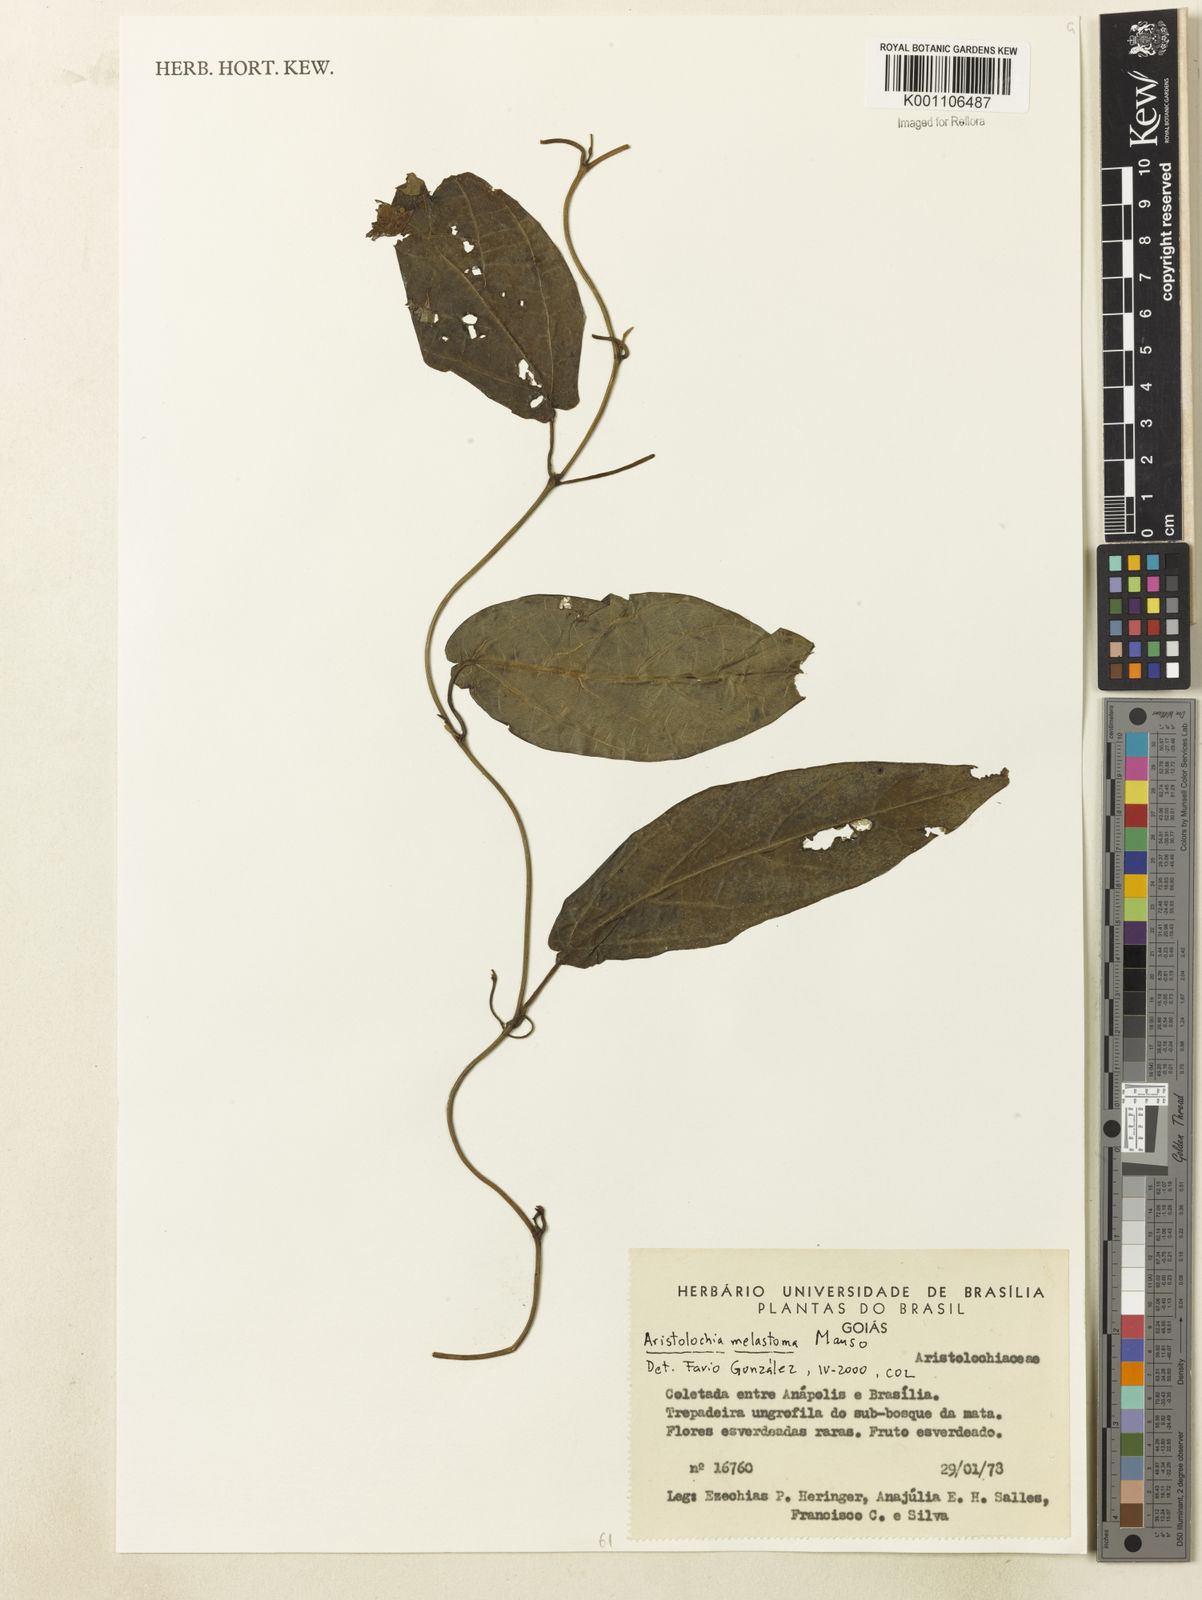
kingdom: Plantae
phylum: Tracheophyta
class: Magnoliopsida
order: Piperales
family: Aristolochiaceae
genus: Aristolochia
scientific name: Aristolochia melastoma
